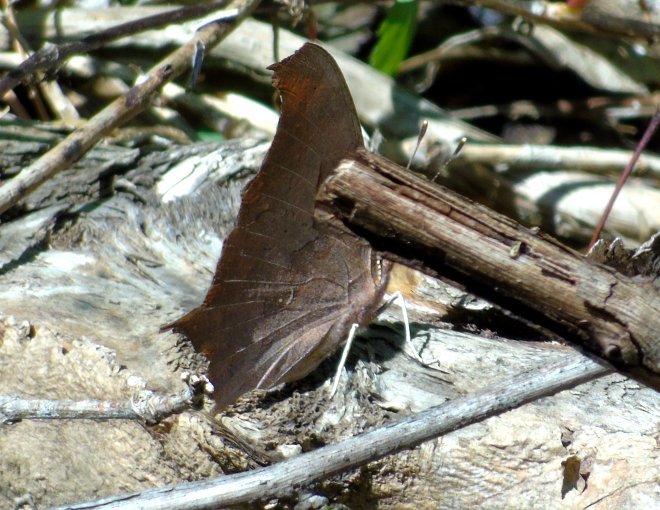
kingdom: Animalia
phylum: Arthropoda
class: Insecta
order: Lepidoptera
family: Nymphalidae
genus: Polygonia
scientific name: Polygonia interrogationis
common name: Question Mark
